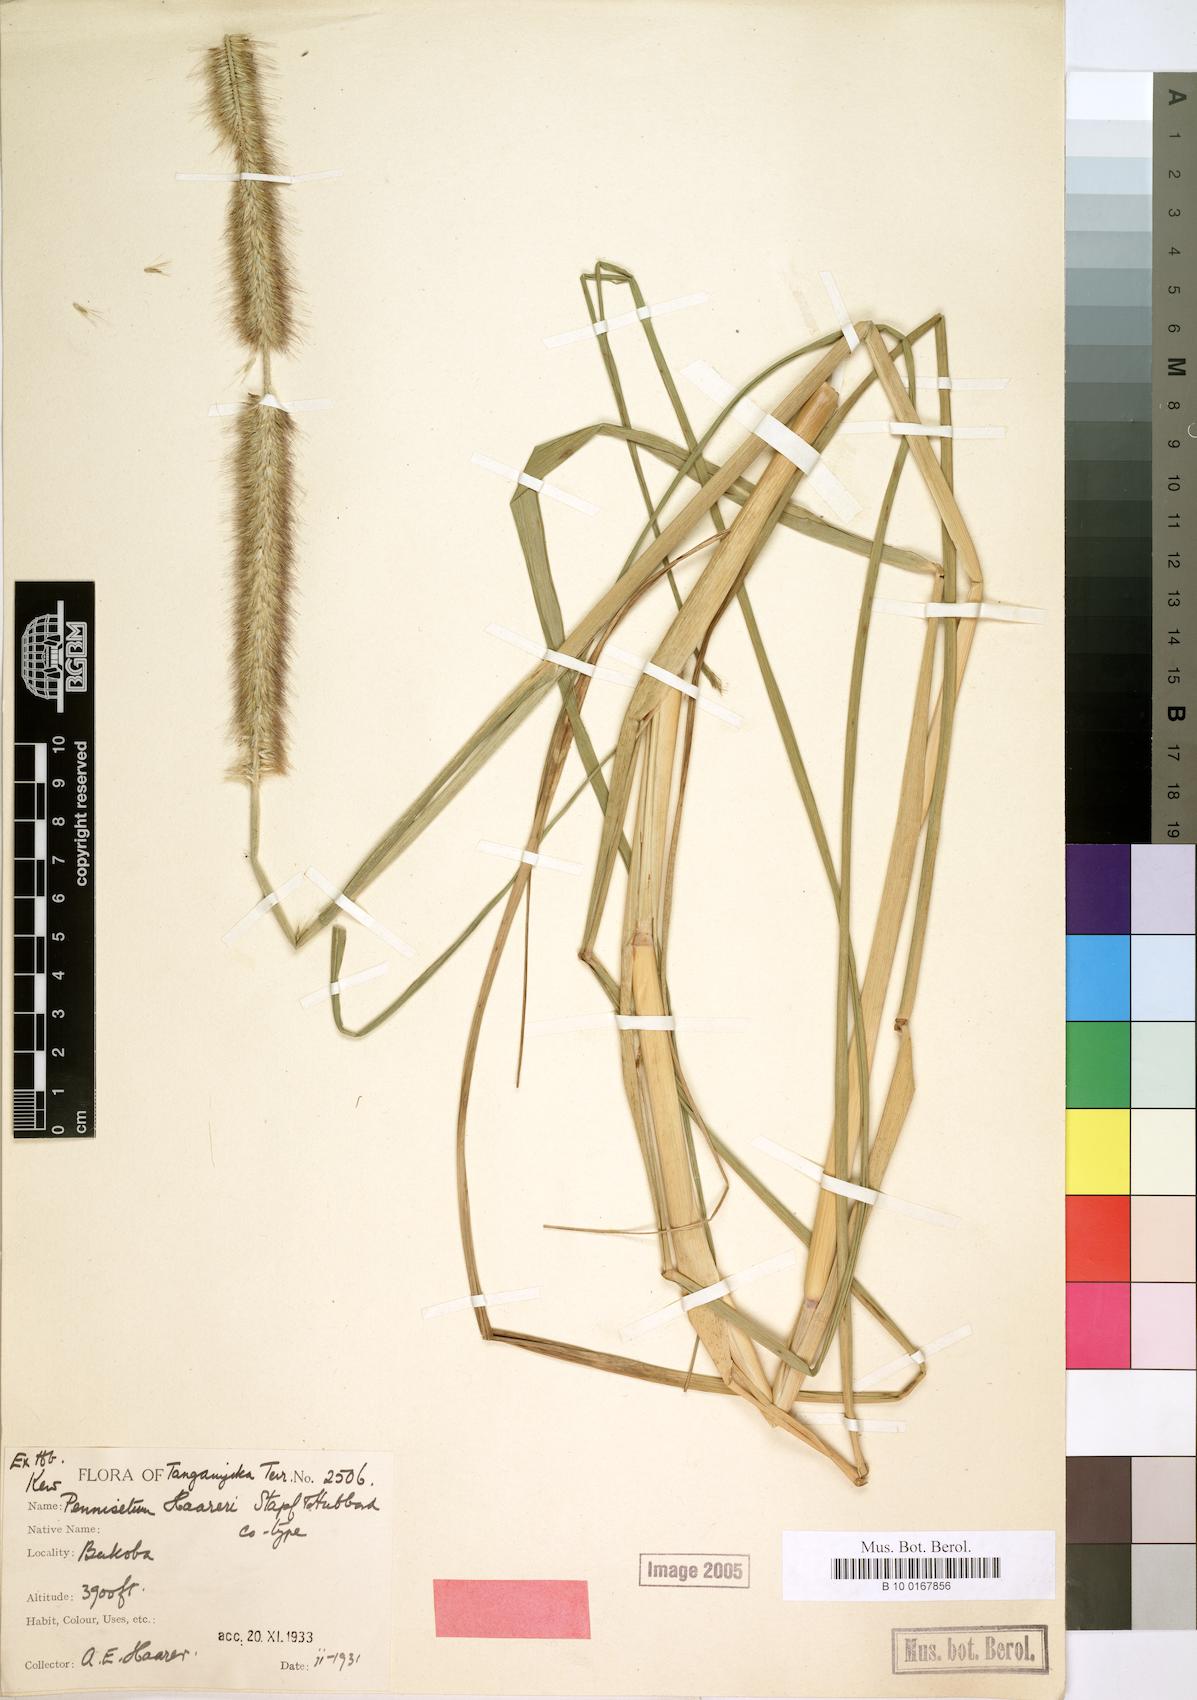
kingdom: Plantae
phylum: Tracheophyta
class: Liliopsida
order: Poales
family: Poaceae
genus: Cenchrus
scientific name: Cenchrus caudatus
